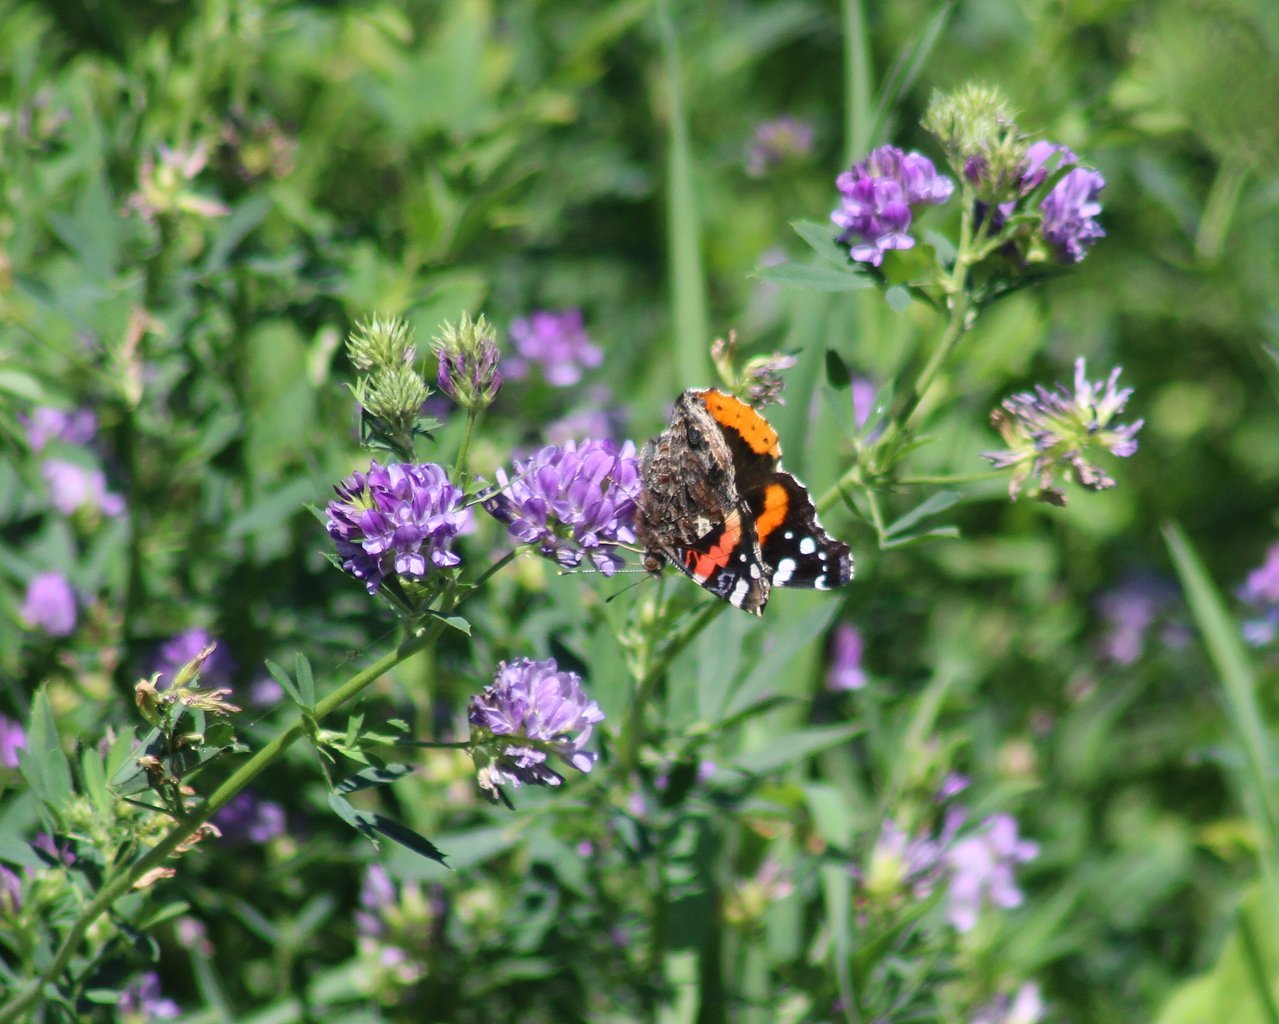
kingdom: Animalia
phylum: Arthropoda
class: Insecta
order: Lepidoptera
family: Nymphalidae
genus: Vanessa
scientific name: Vanessa atalanta
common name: Red Admiral
